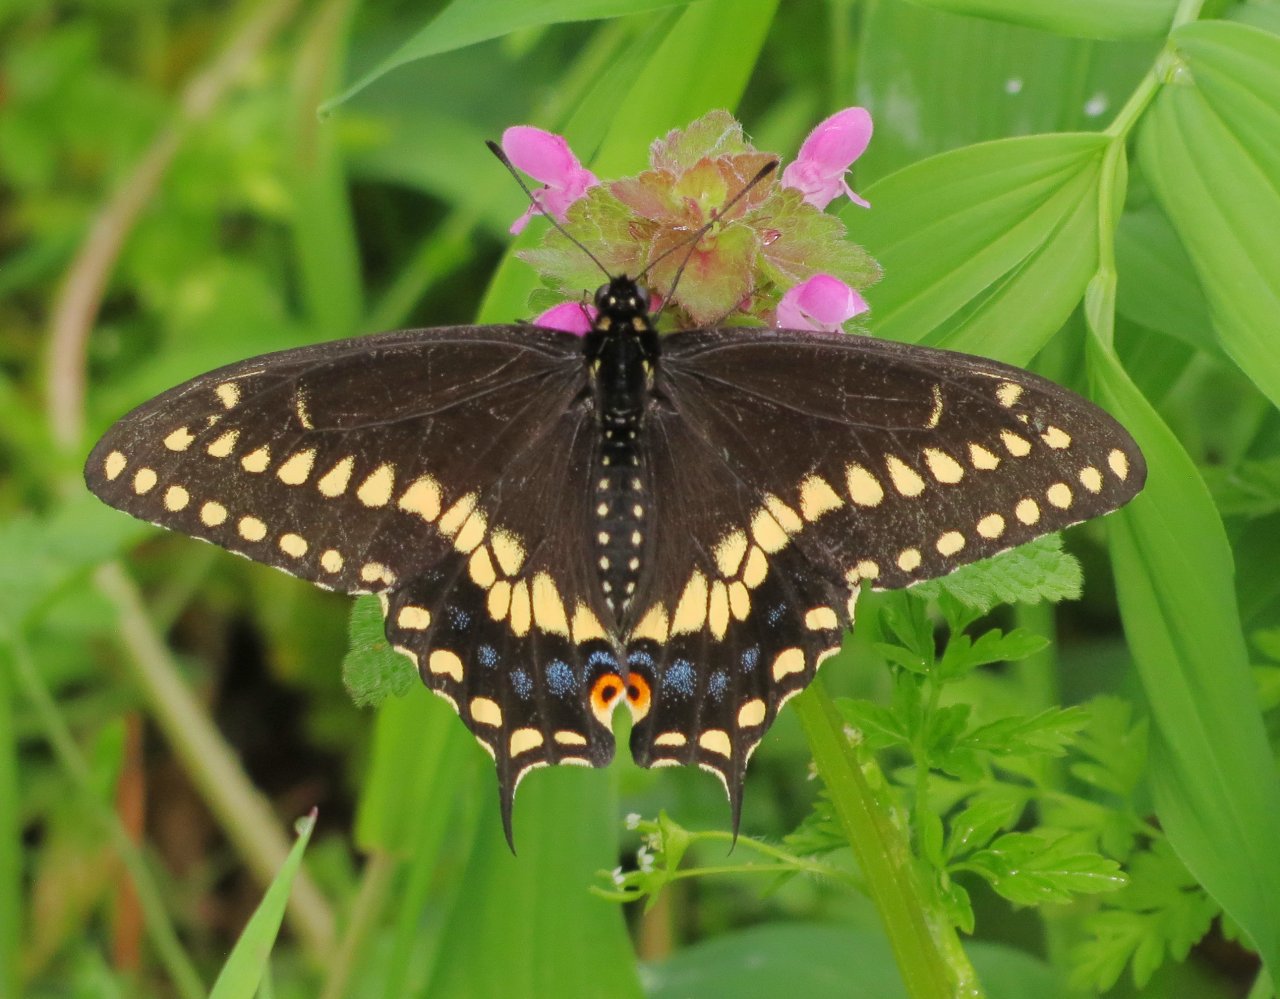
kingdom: Animalia
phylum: Arthropoda
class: Insecta
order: Lepidoptera
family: Papilionidae
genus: Papilio
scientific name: Papilio polyxenes
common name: Black Swallowtail
